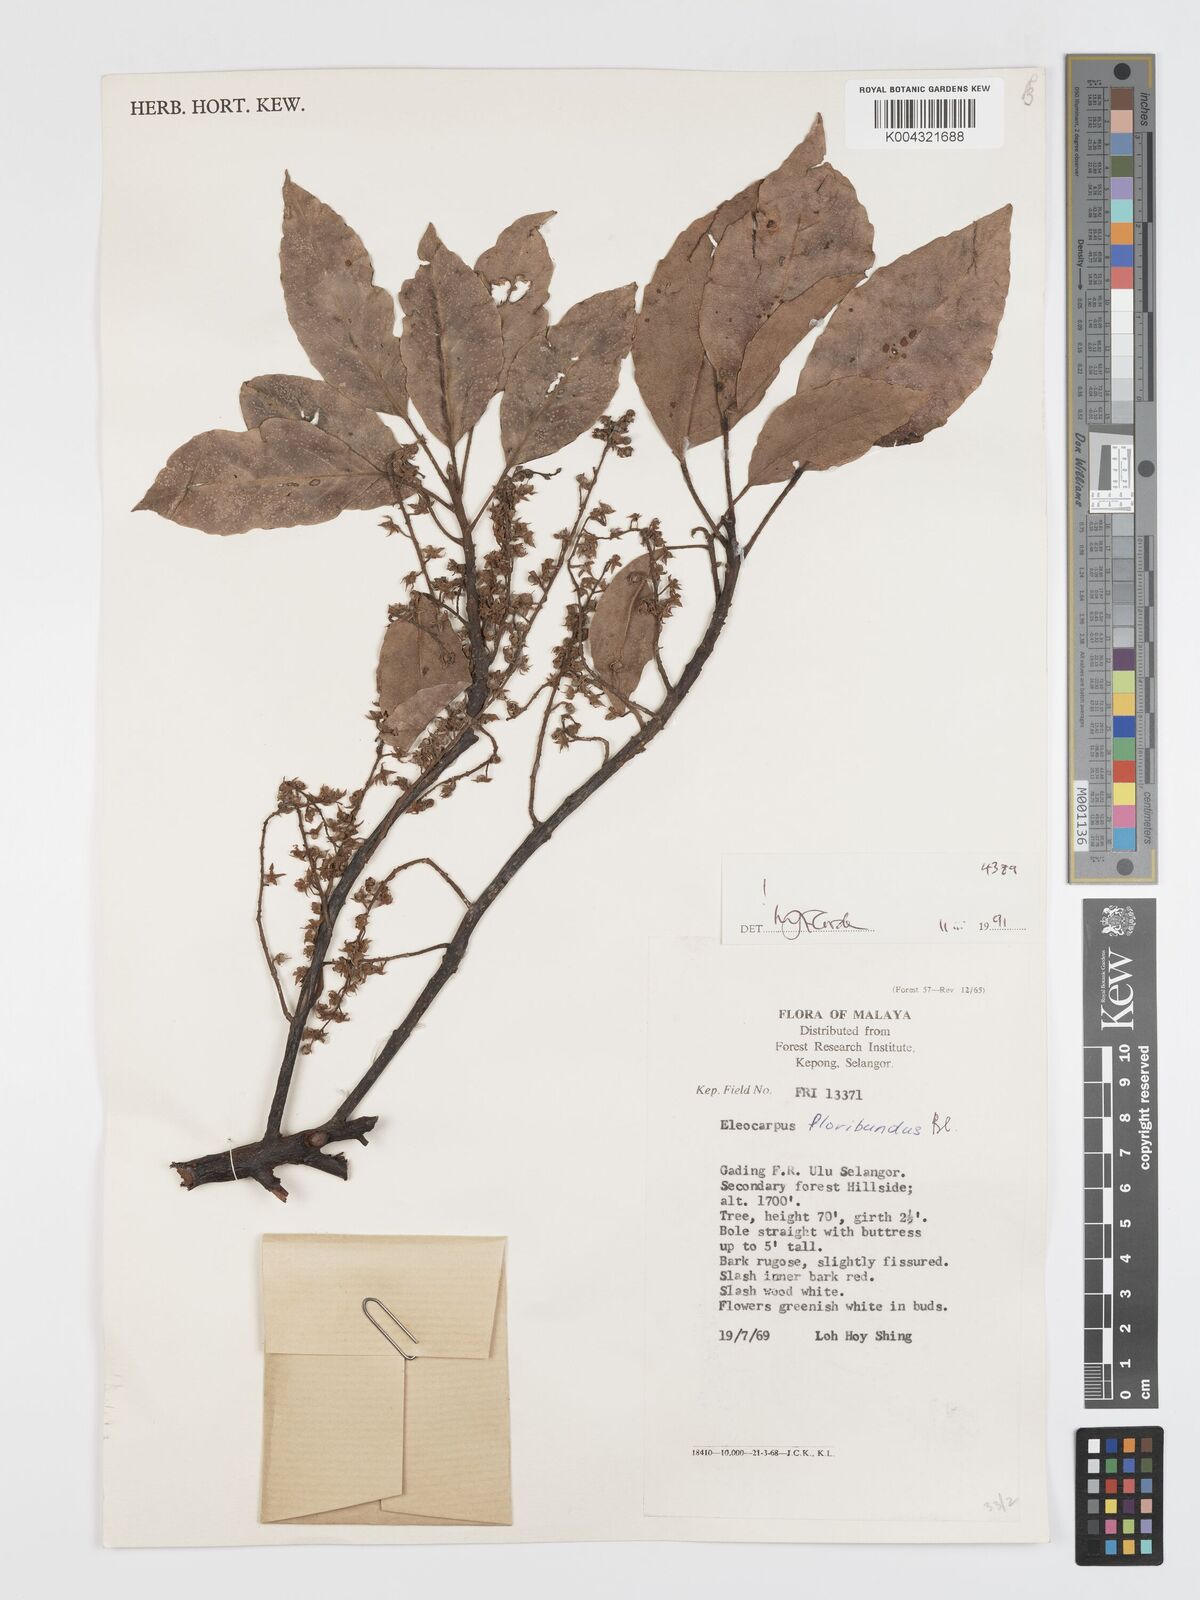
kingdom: Plantae
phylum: Tracheophyta
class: Magnoliopsida
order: Oxalidales
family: Elaeocarpaceae
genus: Elaeocarpus
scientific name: Elaeocarpus floribundus
